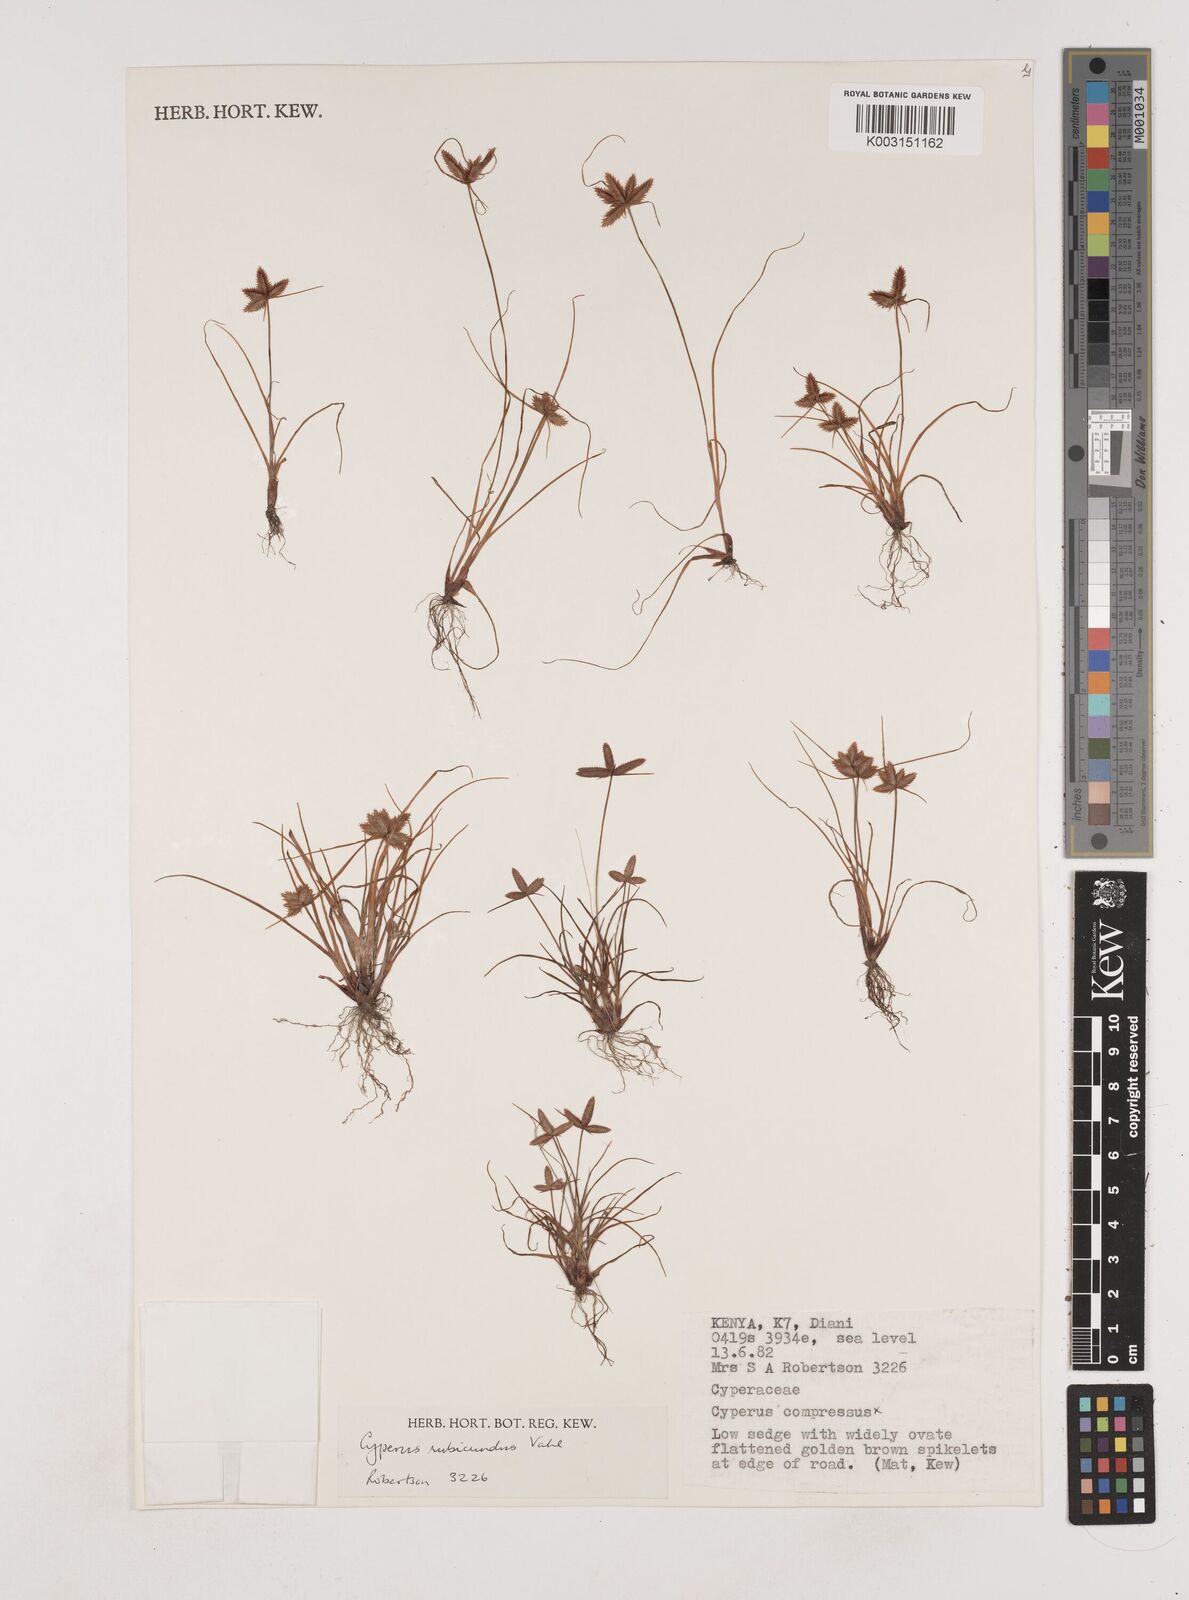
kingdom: Plantae
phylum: Tracheophyta
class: Liliopsida
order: Poales
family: Cyperaceae
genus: Cyperus
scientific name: Cyperus rubicundus
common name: Coco-grass
